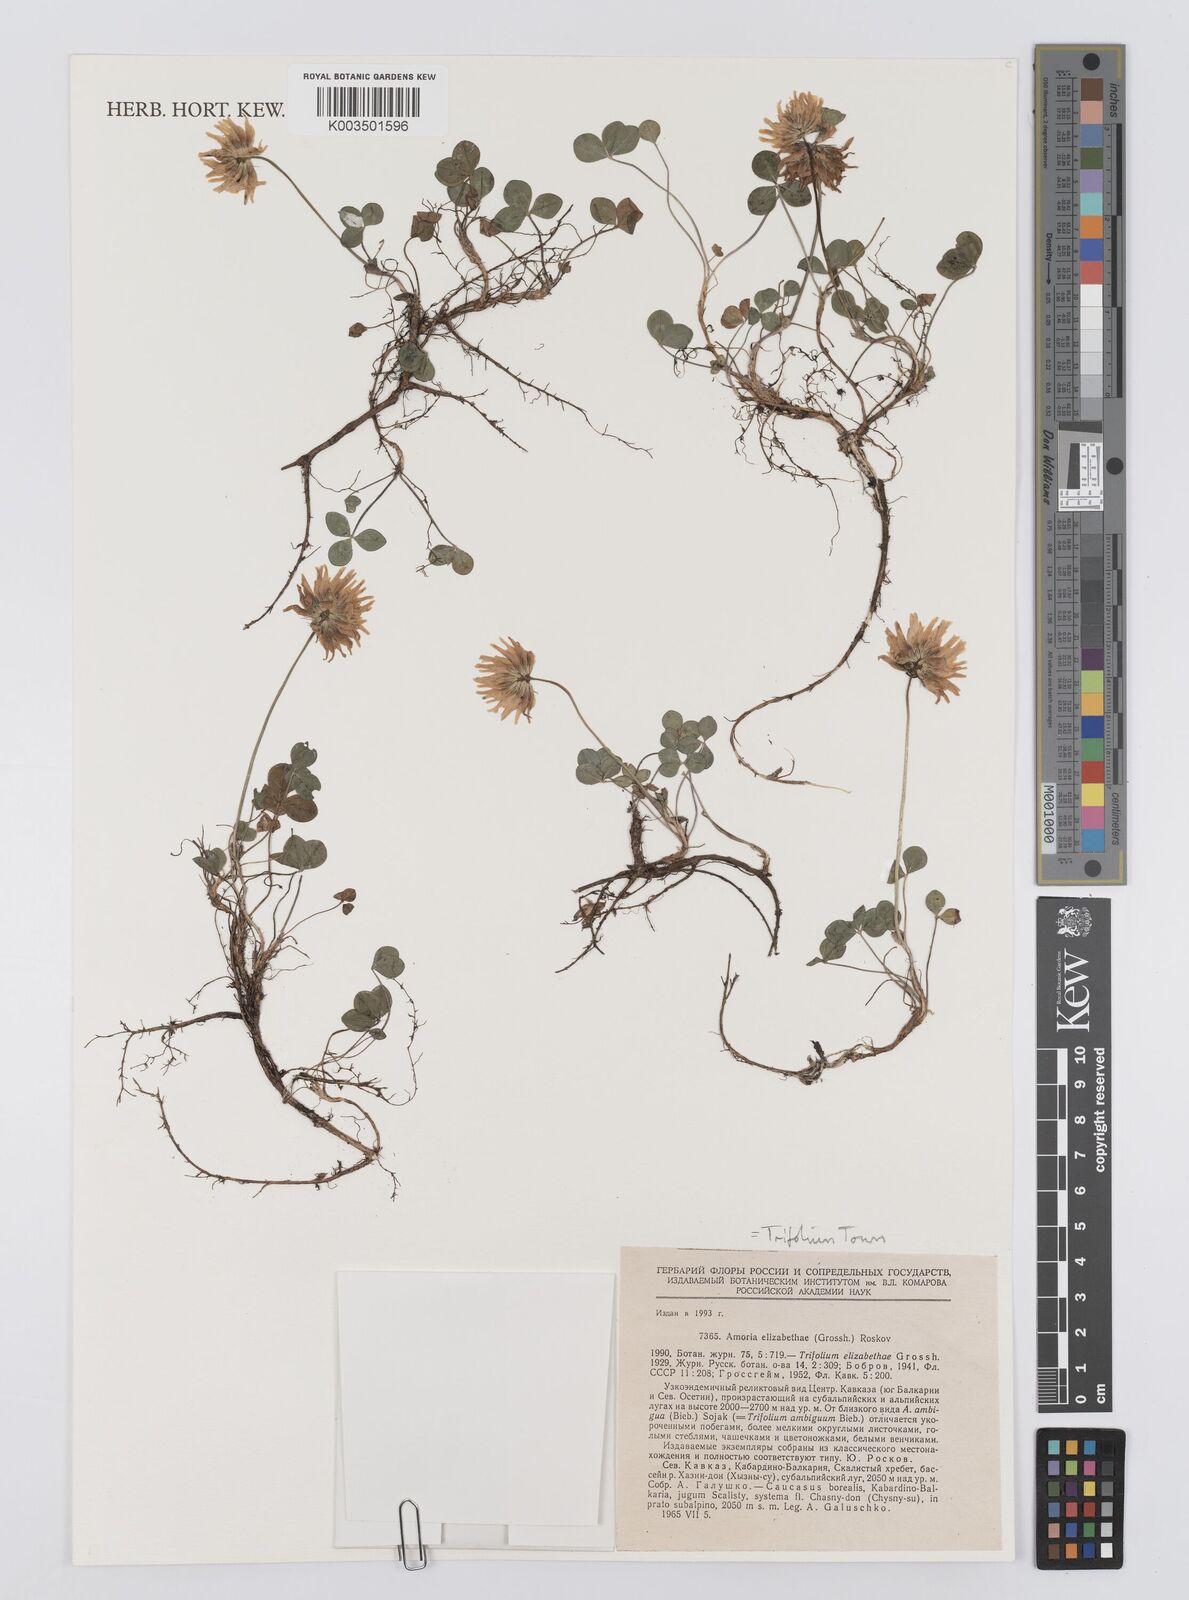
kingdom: Plantae
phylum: Tracheophyta
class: Magnoliopsida
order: Fabales
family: Fabaceae
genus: Trifolium
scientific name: Trifolium elizabethiae
